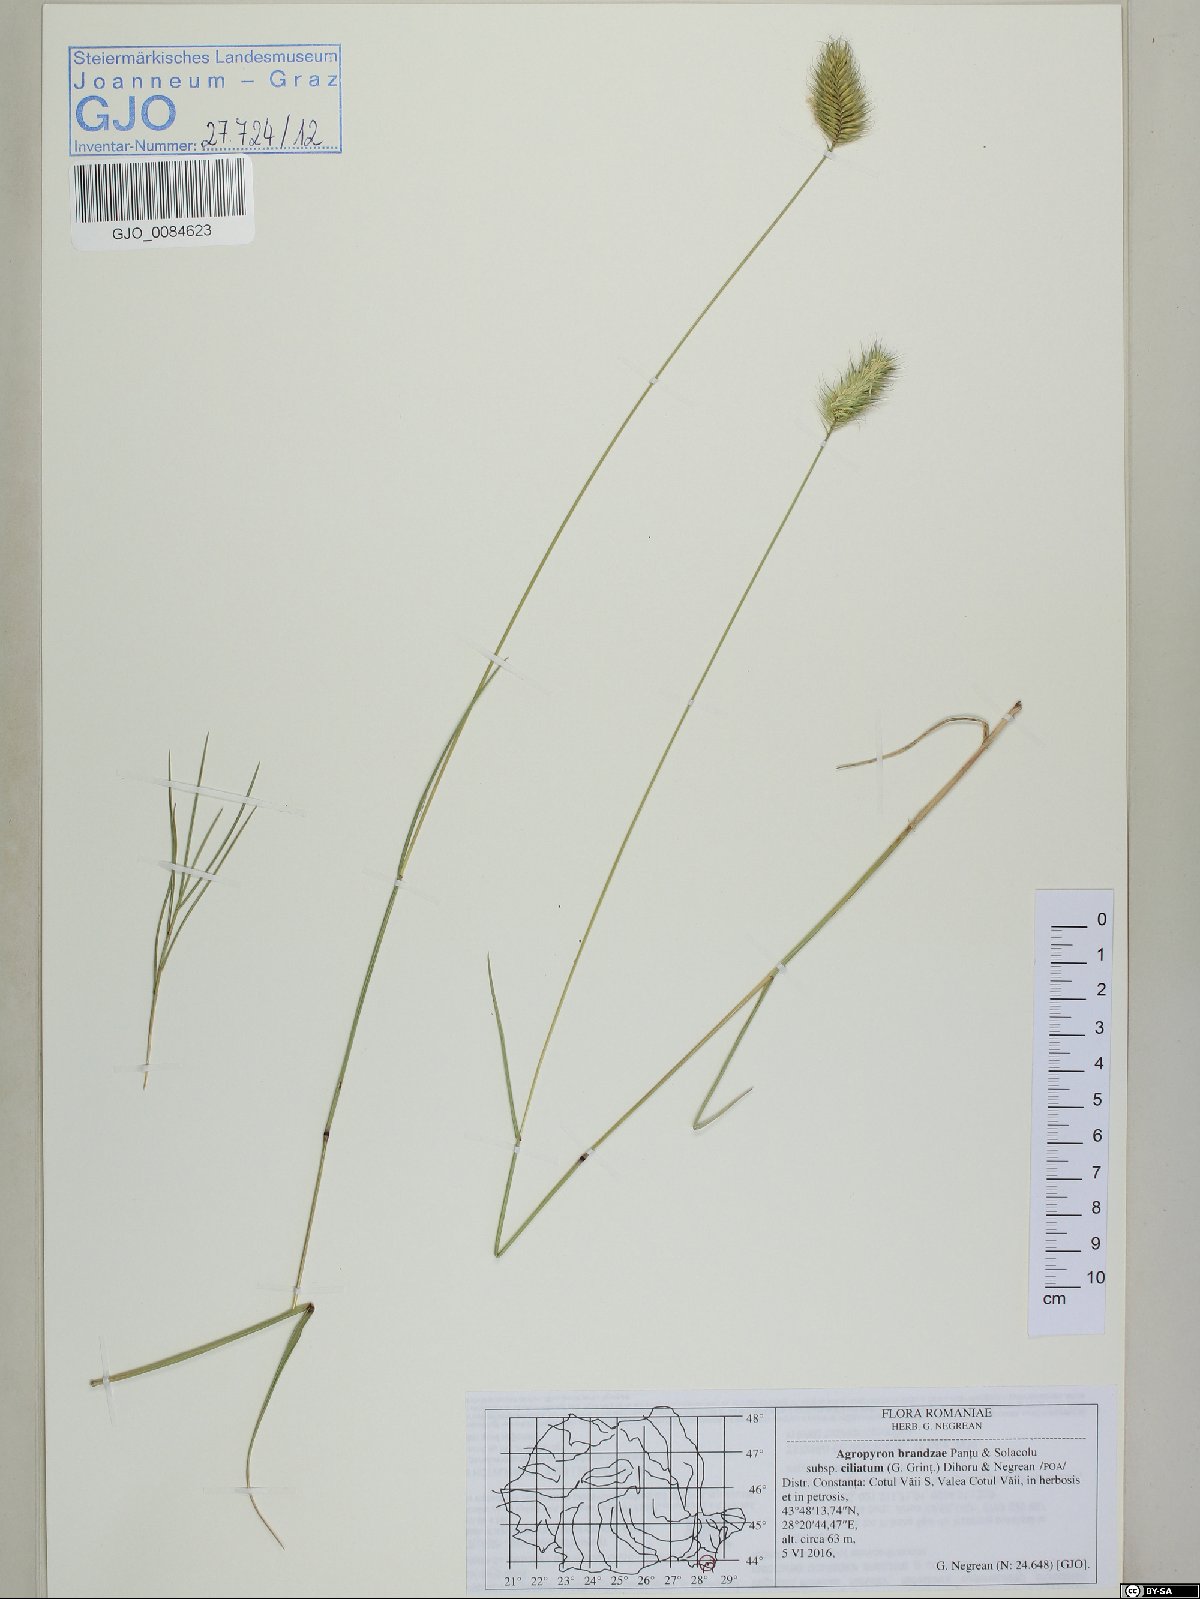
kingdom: Plantae
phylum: Tracheophyta
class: Liliopsida
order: Poales
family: Poaceae
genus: Agropyron
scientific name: Agropyron cristatum
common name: Crested wheatgrass
